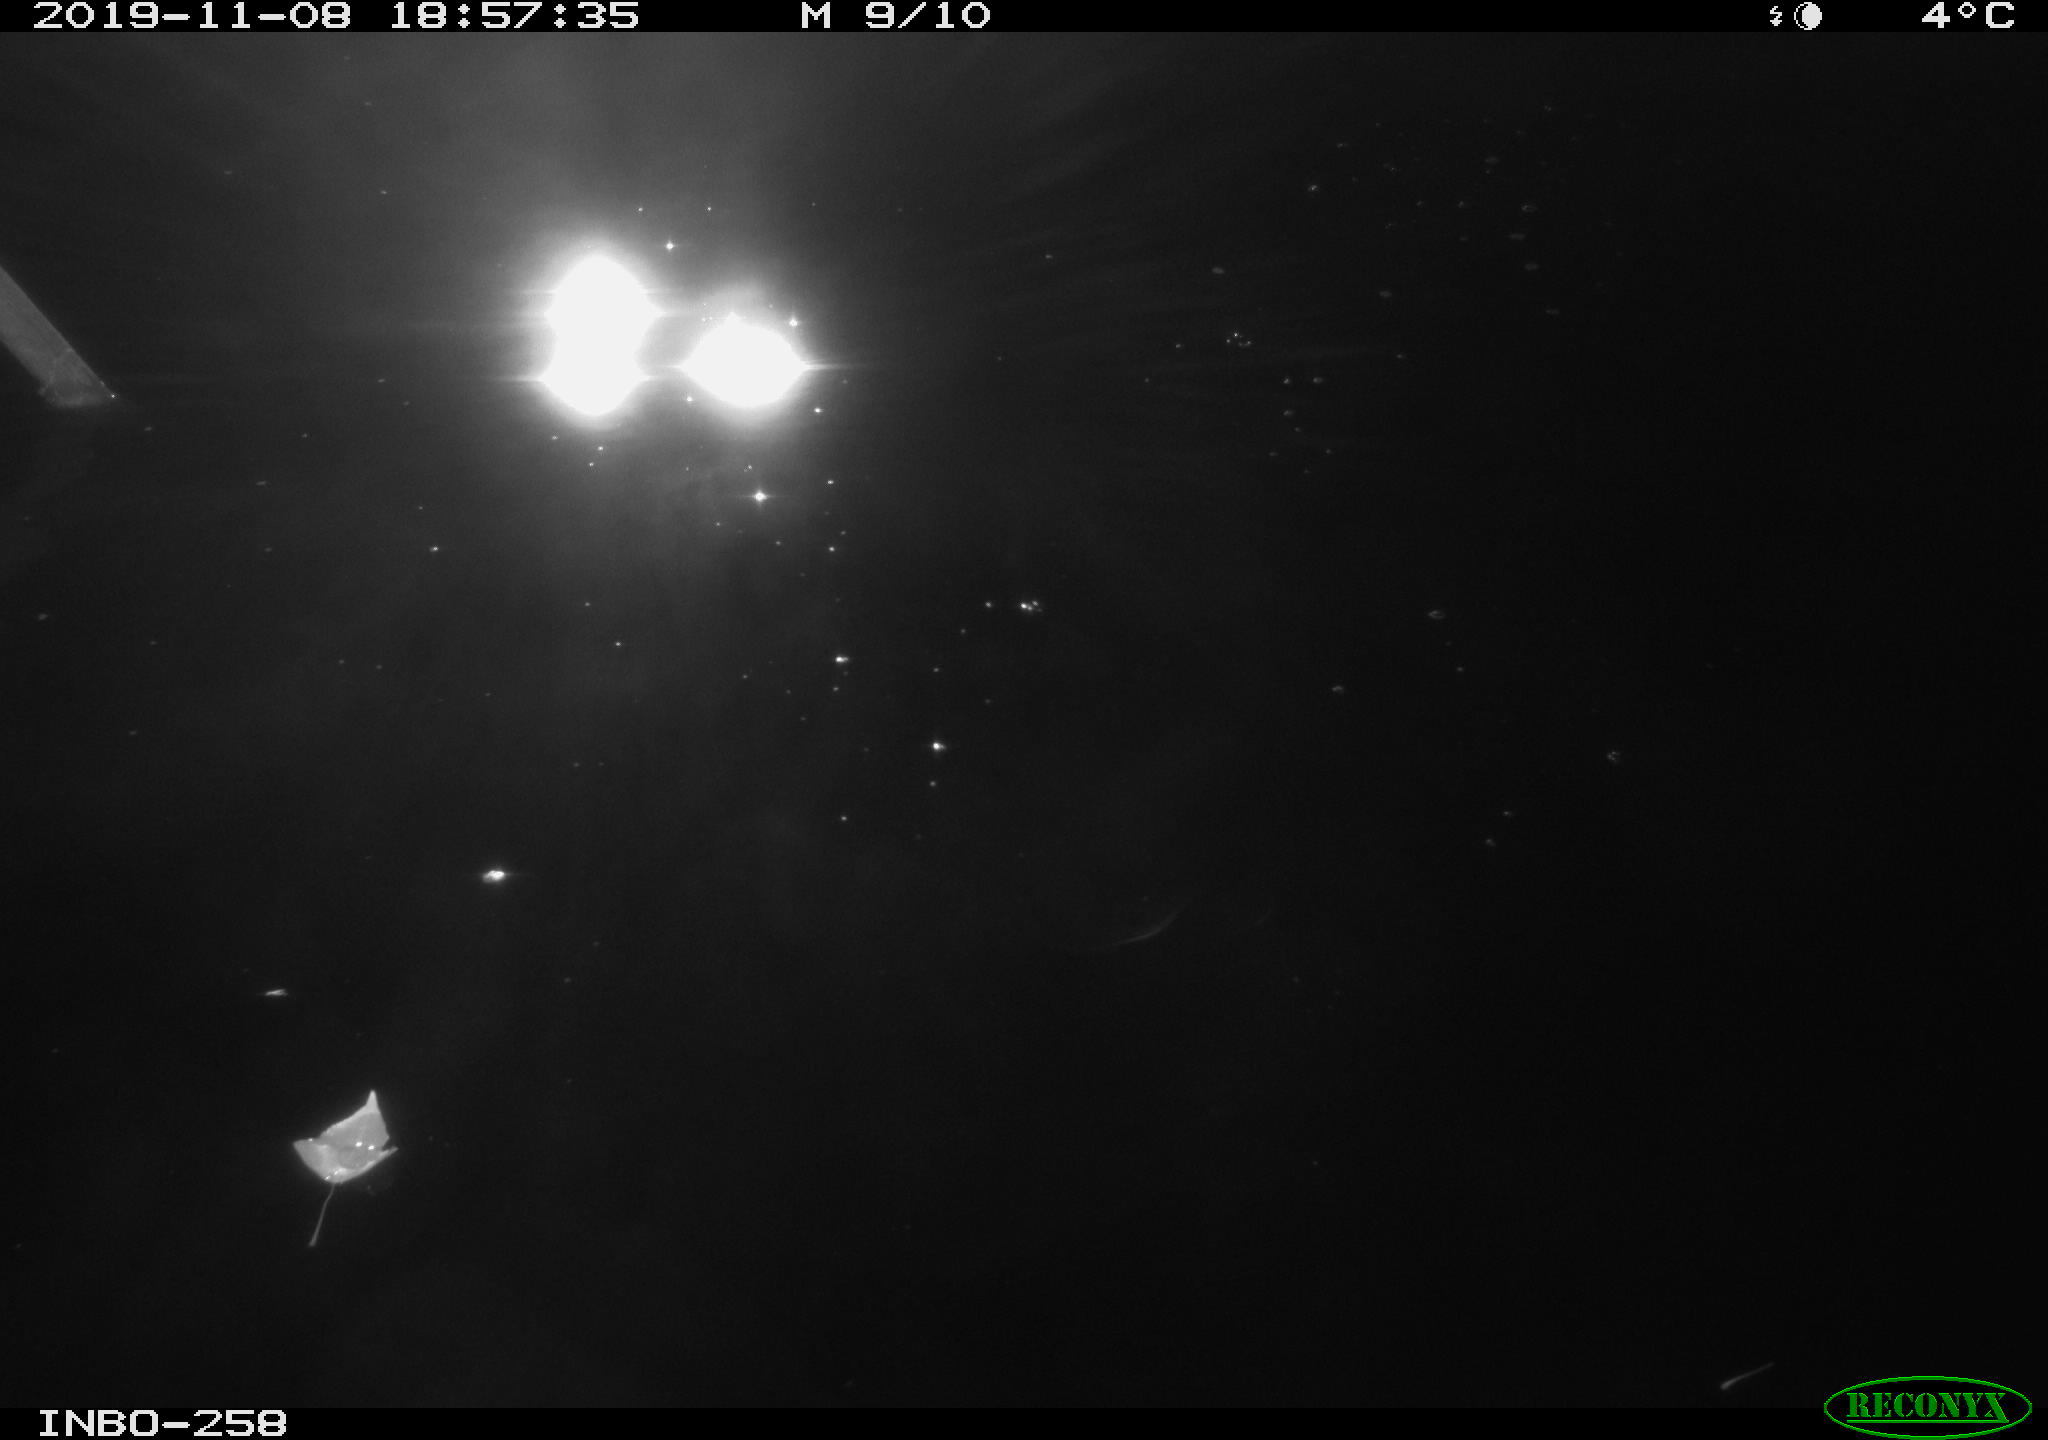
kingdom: Animalia
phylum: Chordata
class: Aves
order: Anseriformes
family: Anatidae
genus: Anas
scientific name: Anas platyrhynchos
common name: Mallard
